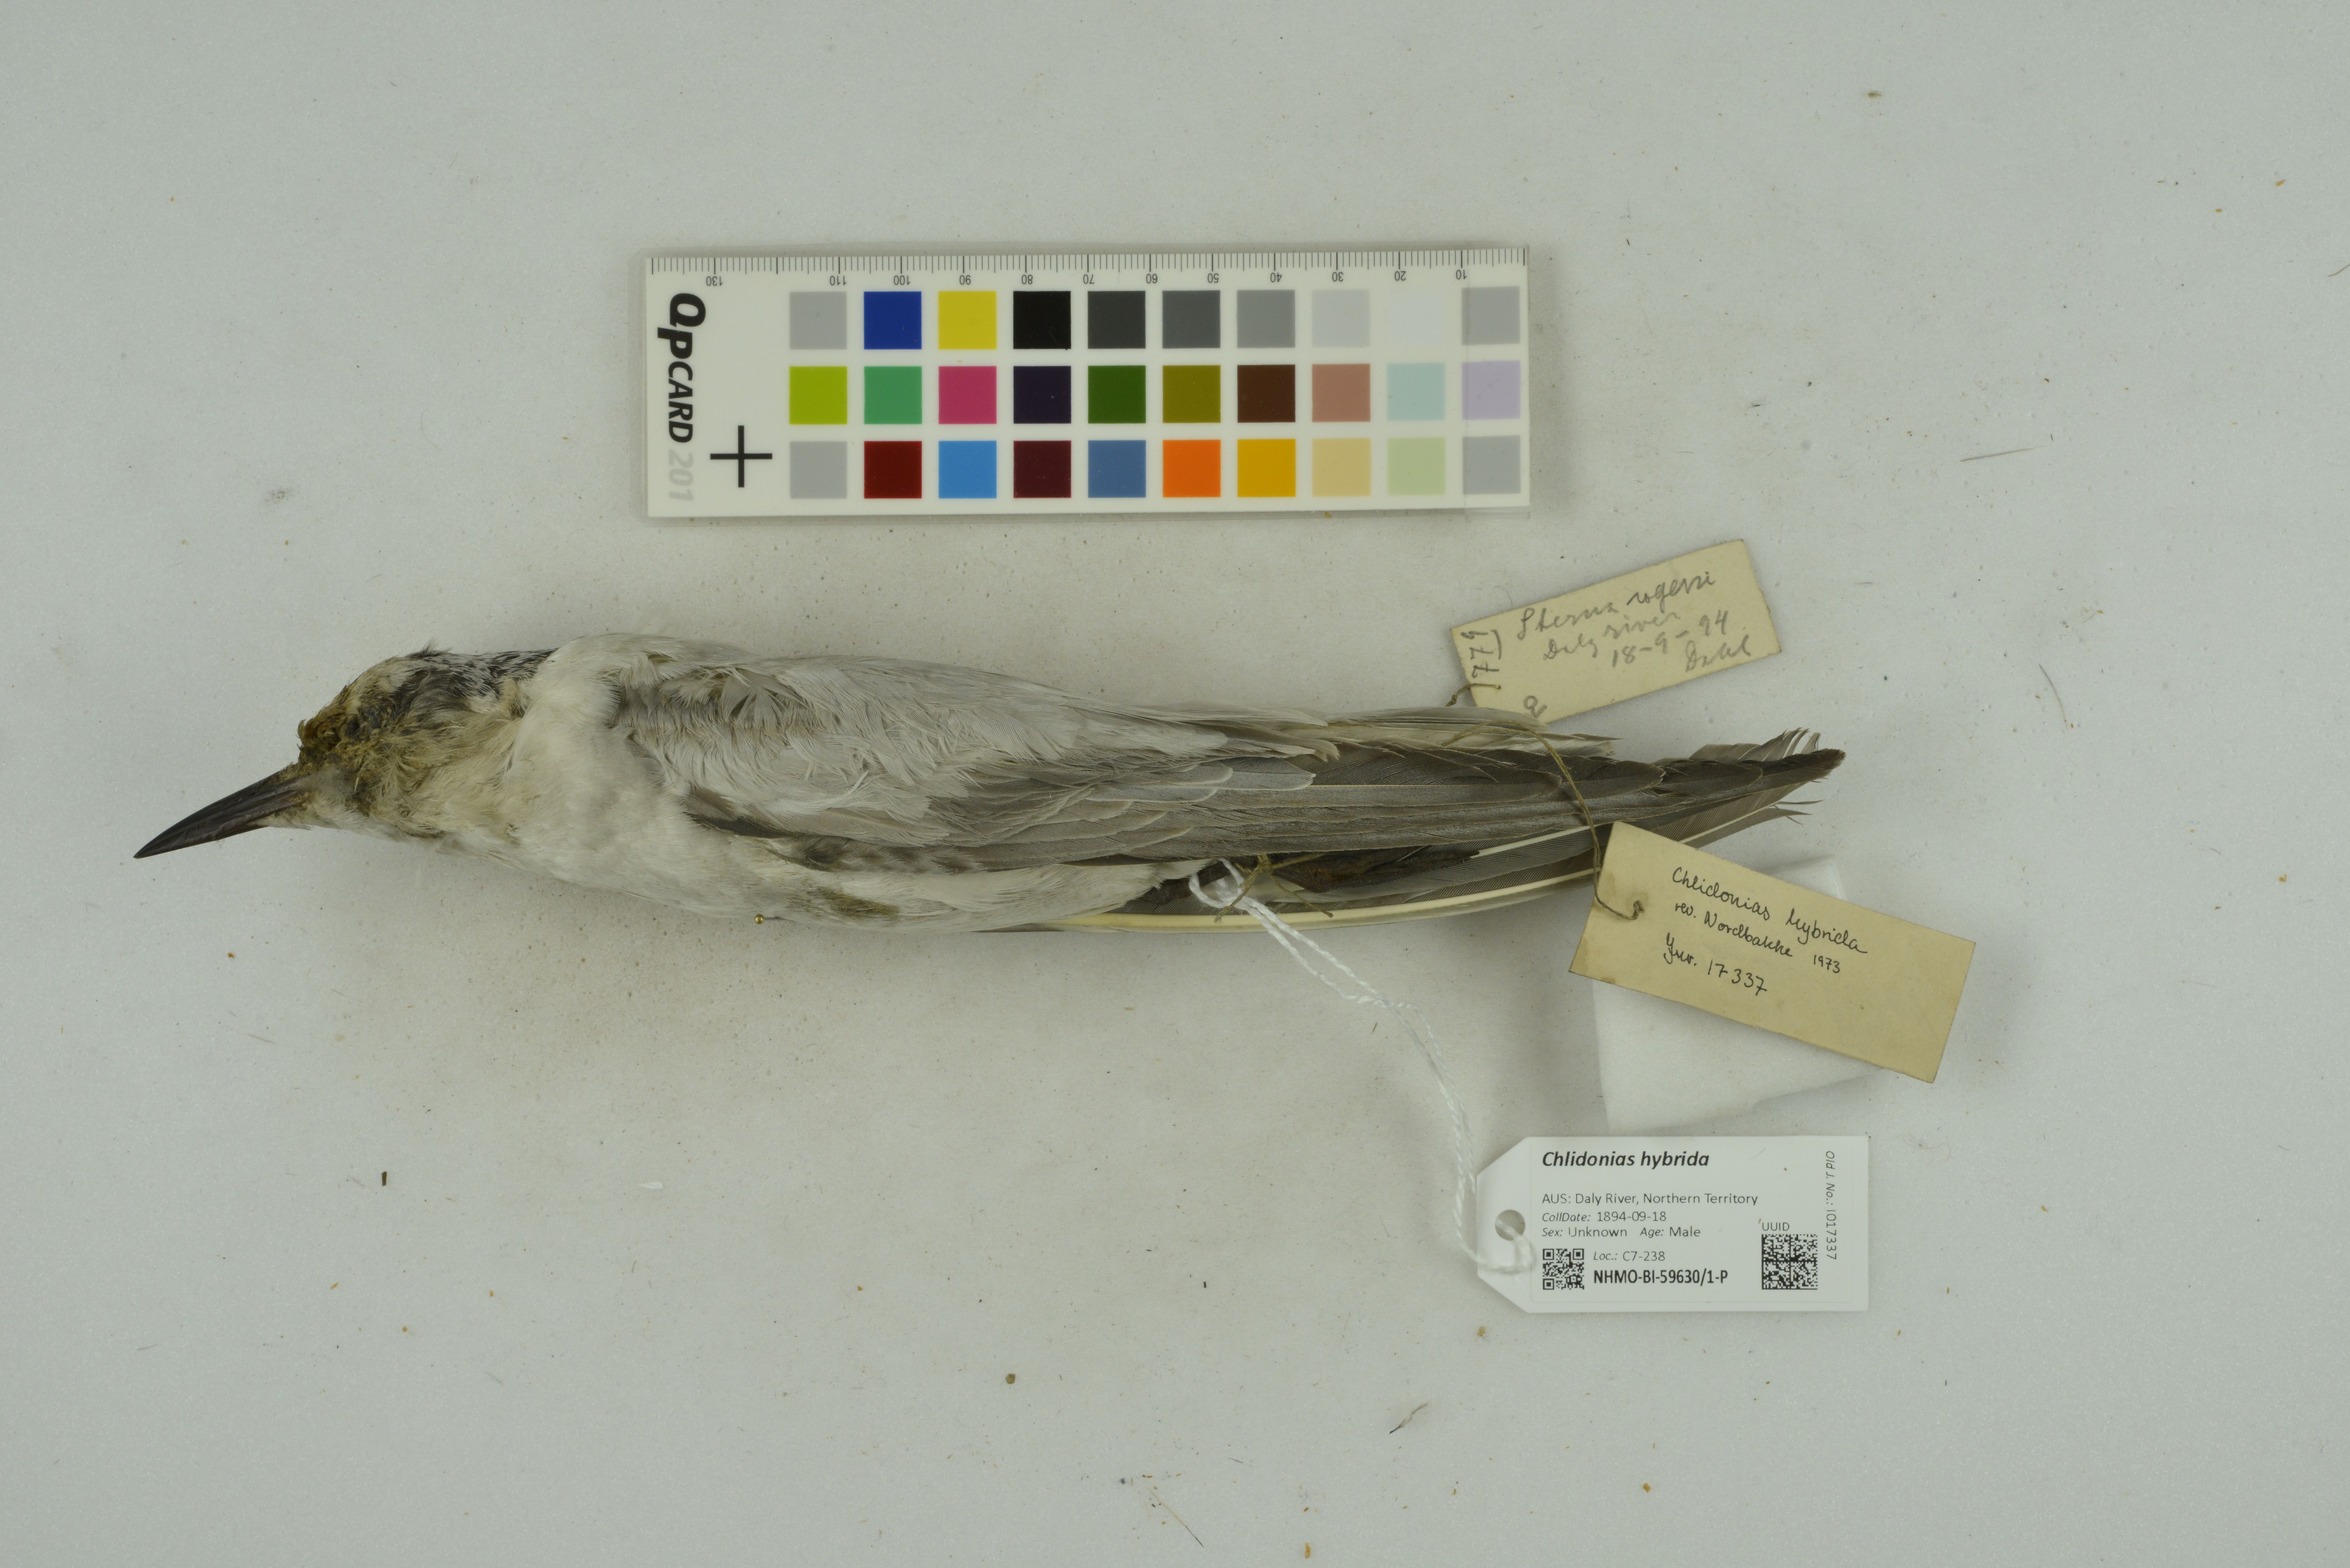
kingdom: Animalia
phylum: Chordata
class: Aves
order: Charadriiformes
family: Laridae
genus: Chlidonias
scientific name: Chlidonias hybrida
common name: Whiskered tern
